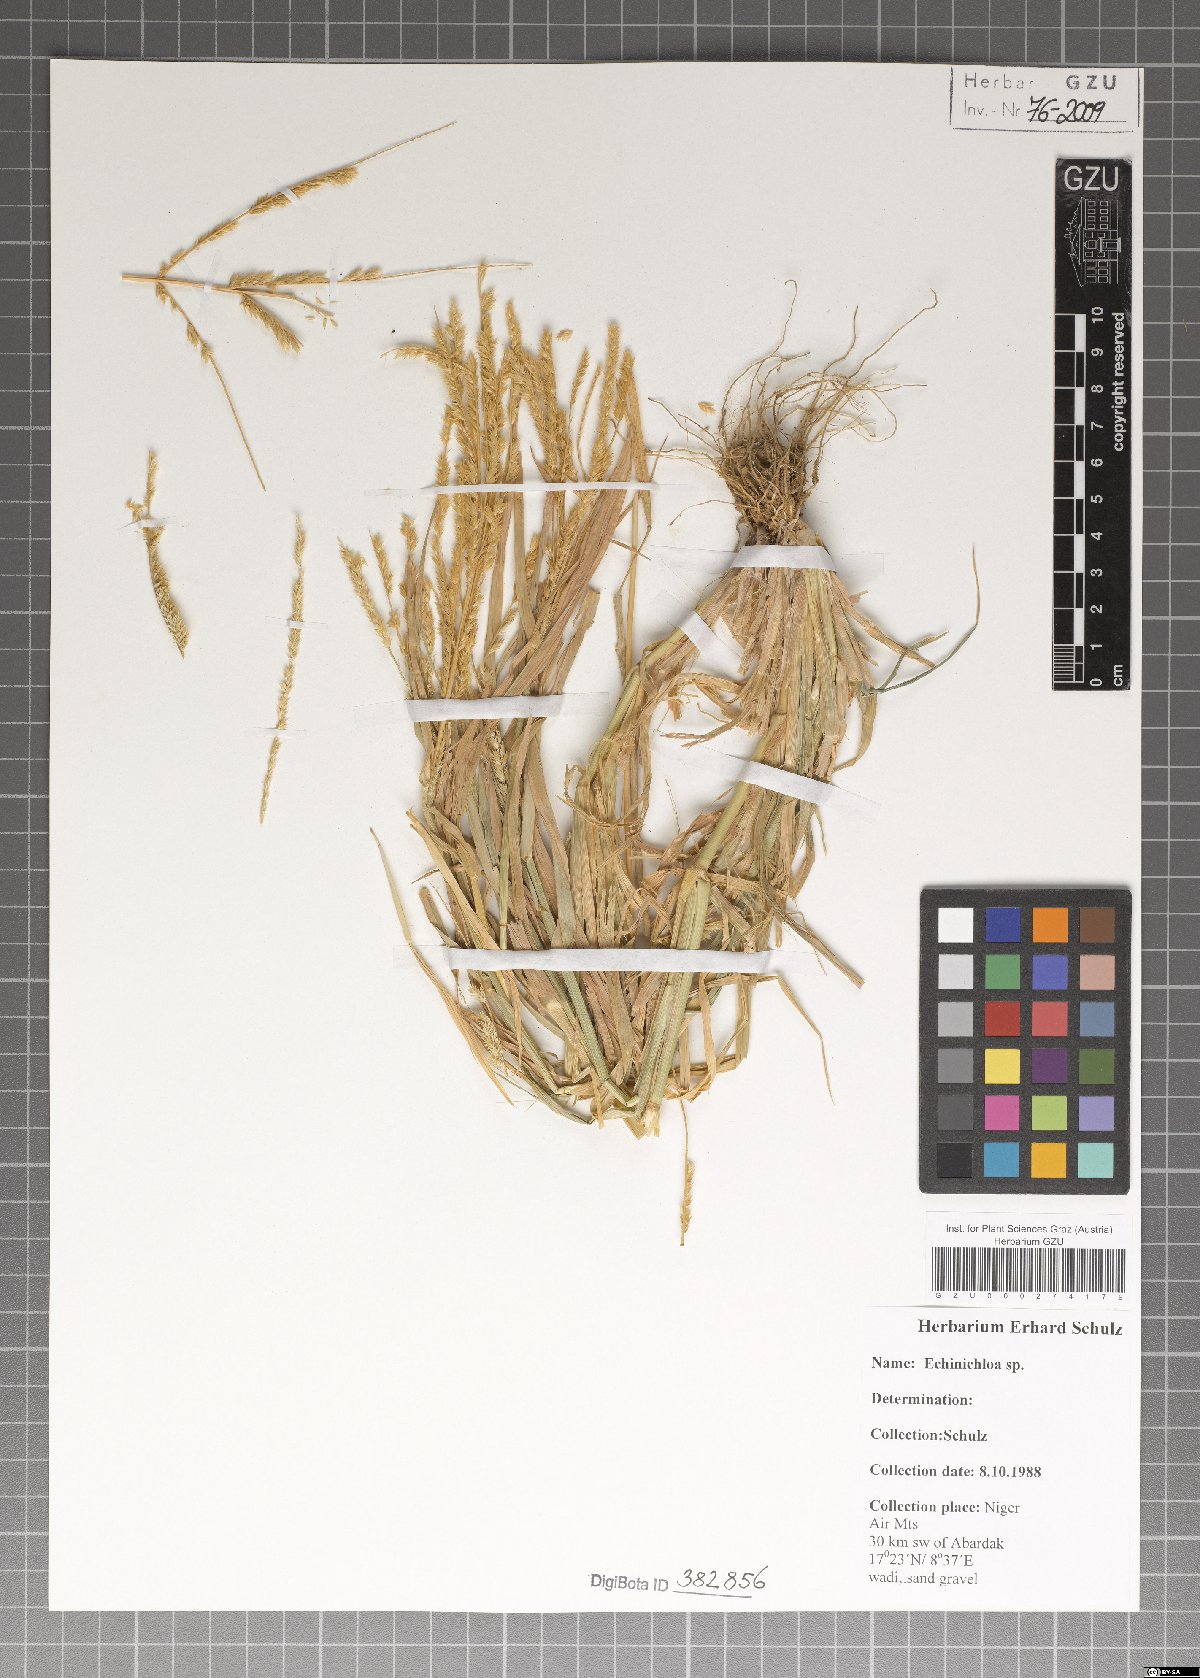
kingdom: Plantae
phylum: Tracheophyta
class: Liliopsida
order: Poales
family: Poaceae
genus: Echinochloa
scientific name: Echinochloa
